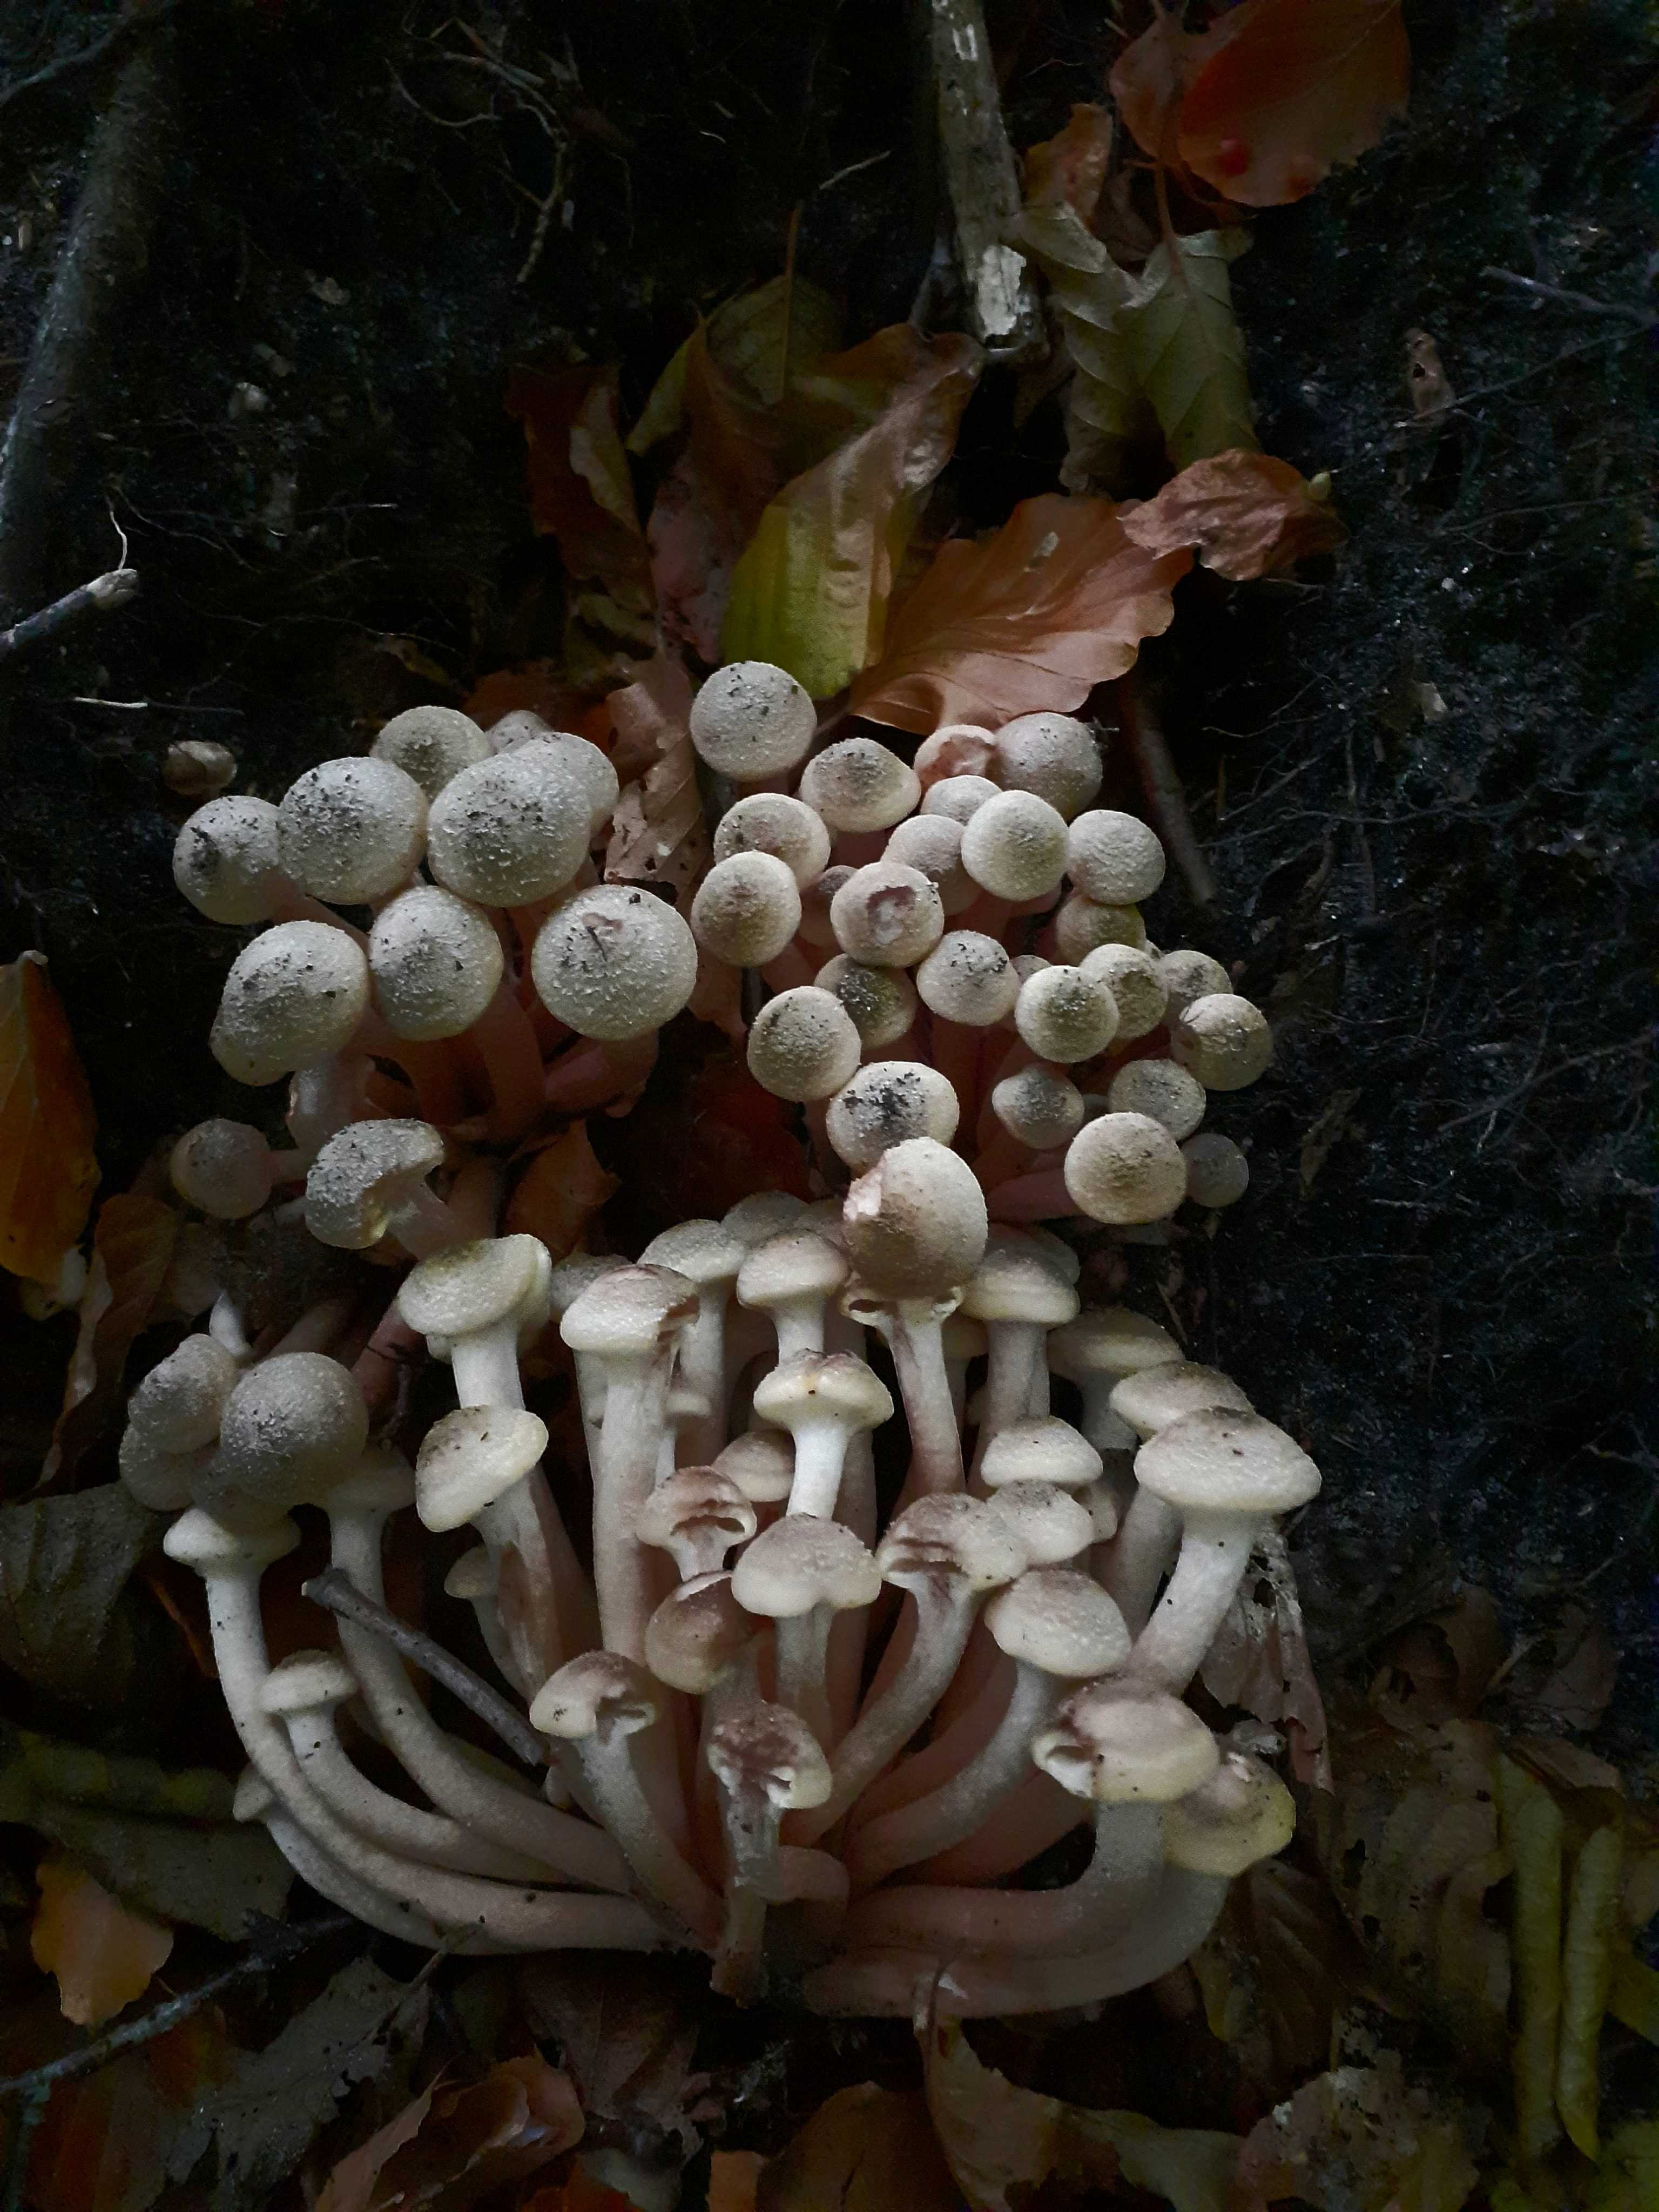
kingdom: Fungi
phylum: Basidiomycota
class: Agaricomycetes
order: Agaricales
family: Physalacriaceae
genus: Armillaria
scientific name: Armillaria mellea
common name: ægte honningsvamp
